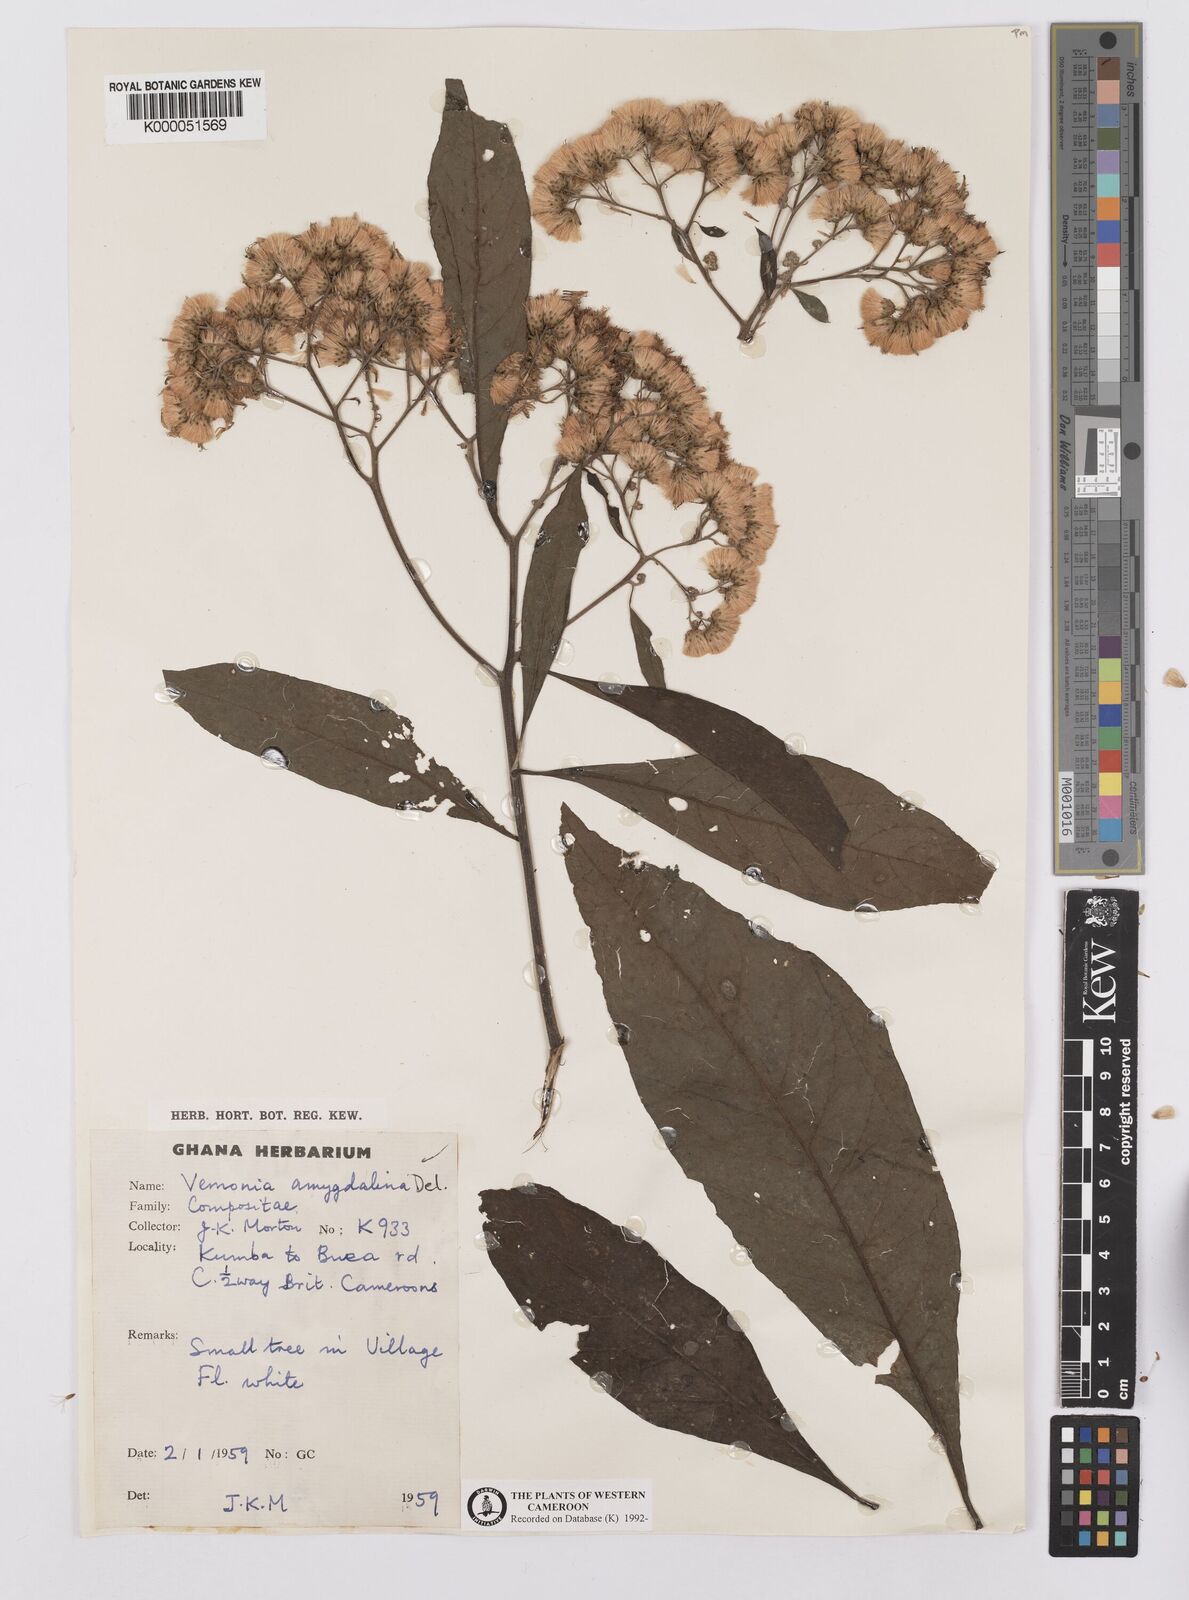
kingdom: Plantae
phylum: Tracheophyta
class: Magnoliopsida
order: Asterales
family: Asteraceae
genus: Gymnanthemum
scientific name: Gymnanthemum amygdalinum
